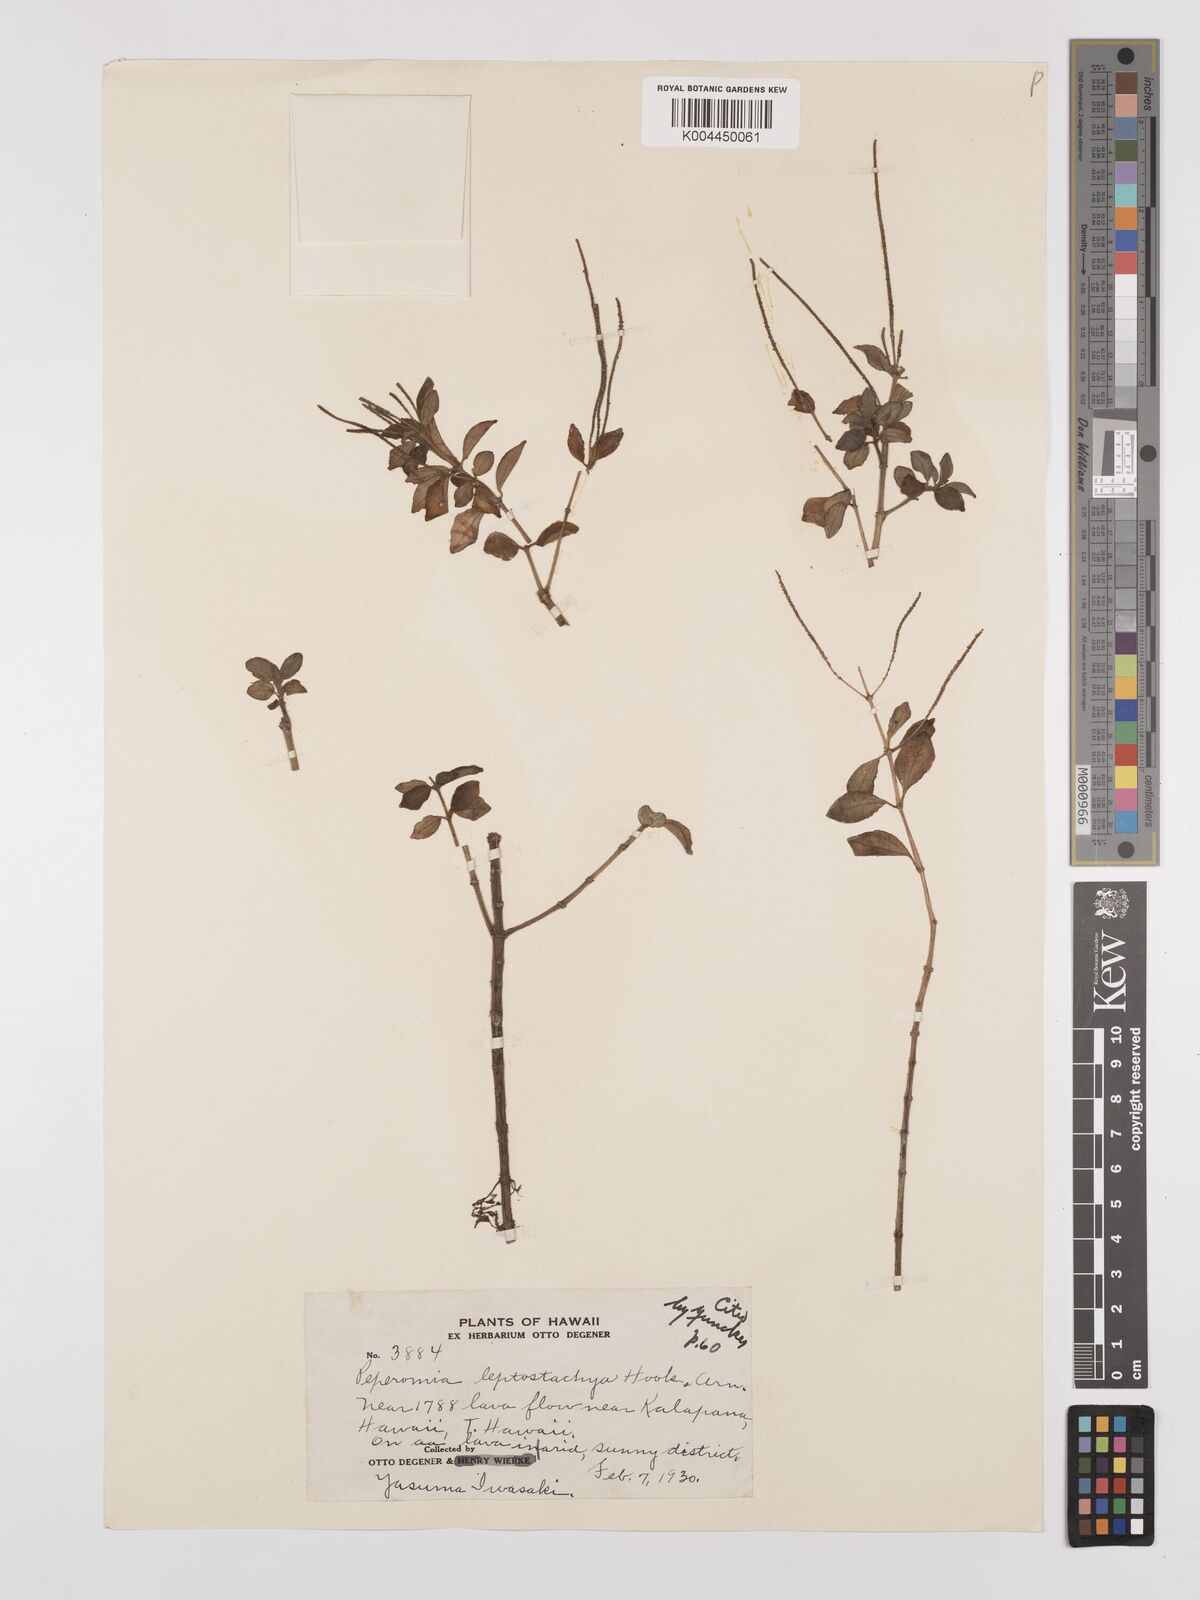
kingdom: Plantae
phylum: Tracheophyta
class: Magnoliopsida
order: Piperales
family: Piperaceae
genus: Peperomia
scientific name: Peperomia leptostachya
